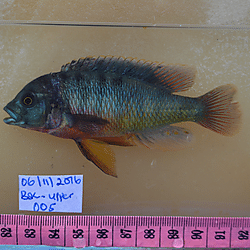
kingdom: Animalia
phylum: Chordata
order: Perciformes
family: Cichlidae
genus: Paralabidochromis
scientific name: Paralabidochromis
